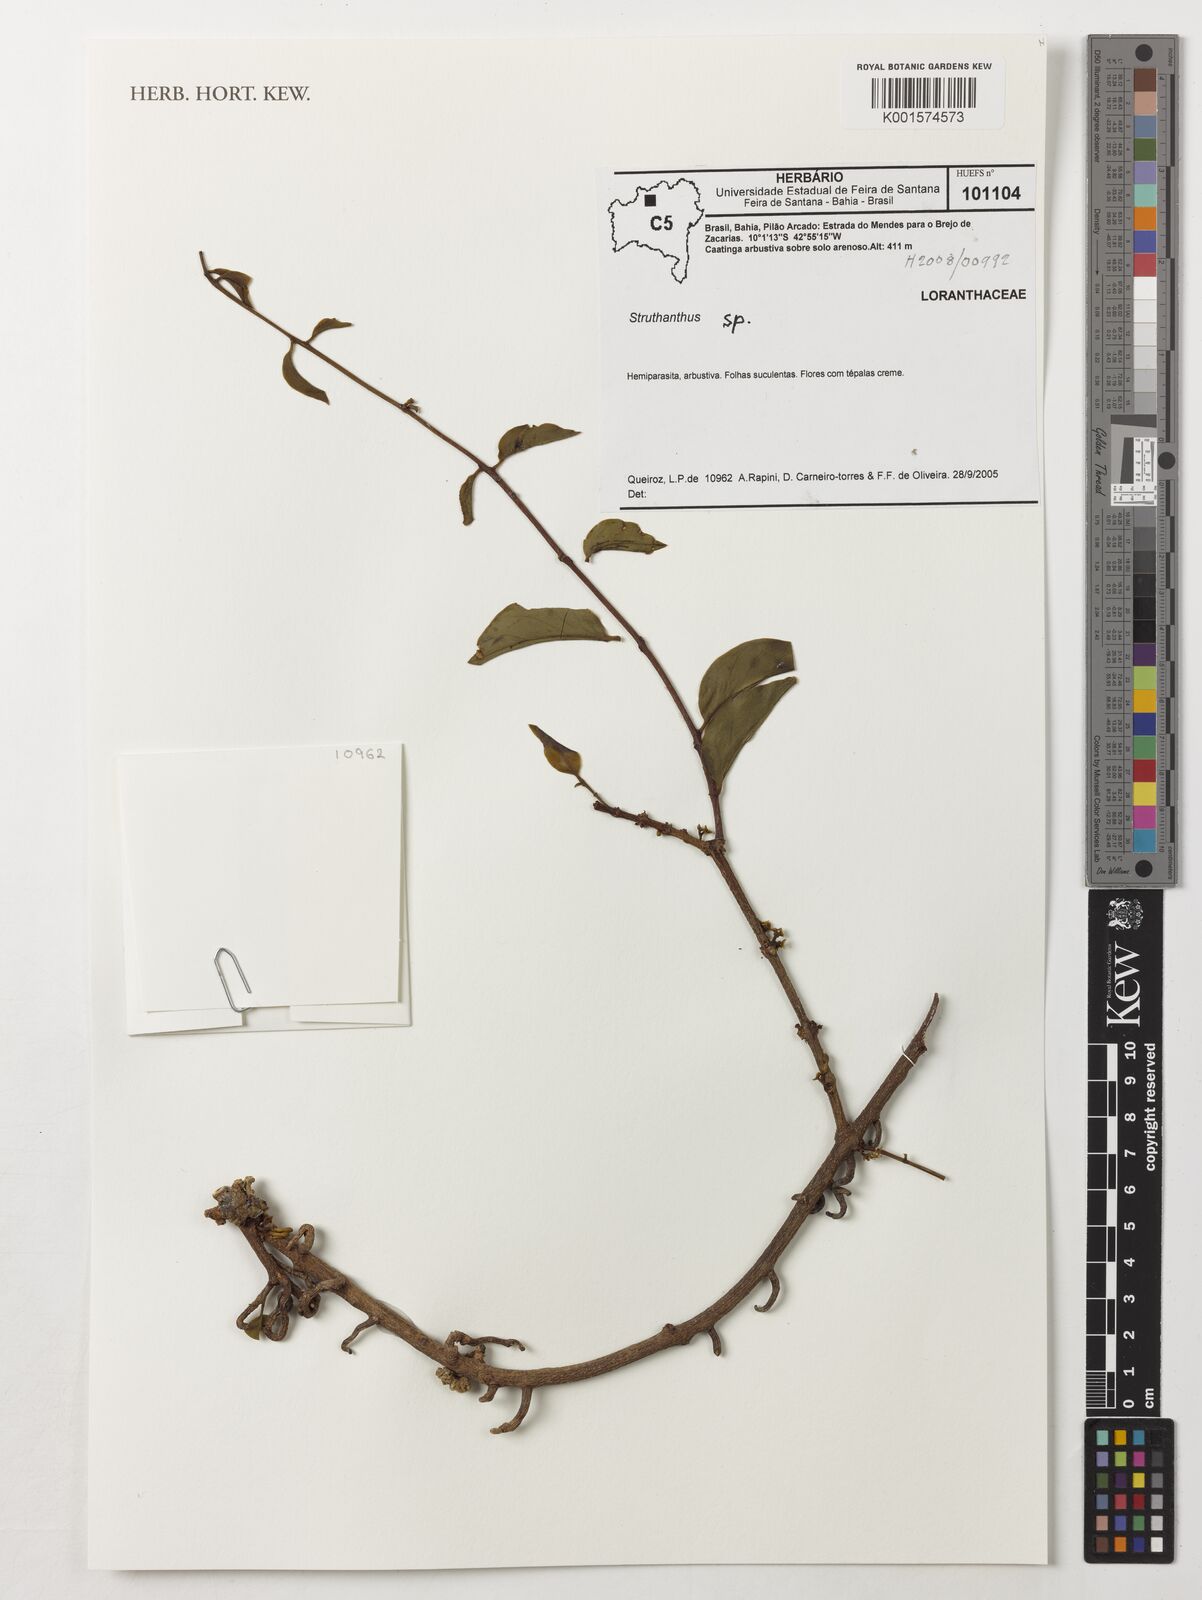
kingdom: Plantae
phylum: Tracheophyta
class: Magnoliopsida
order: Santalales
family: Loranthaceae
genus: Struthanthus
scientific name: Struthanthus
